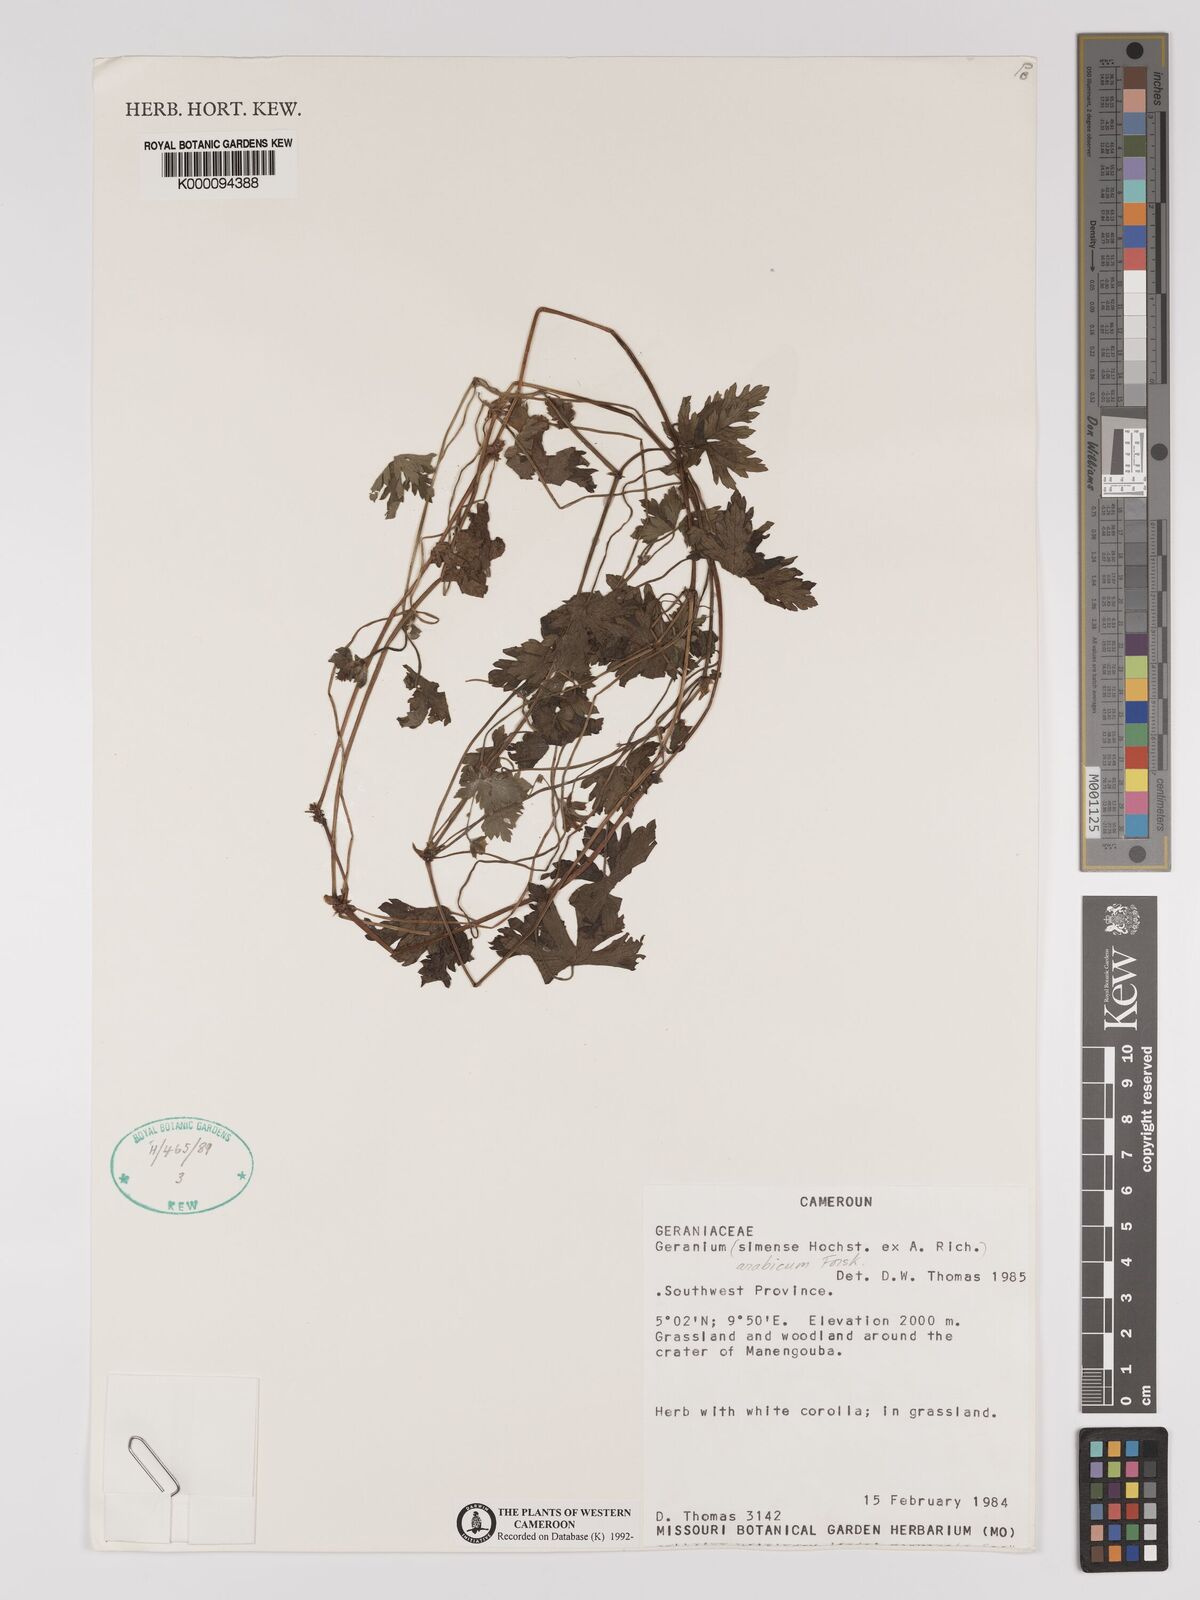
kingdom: Plantae
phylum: Tracheophyta
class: Magnoliopsida
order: Geraniales
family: Geraniaceae
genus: Geranium
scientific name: Geranium arabicum
